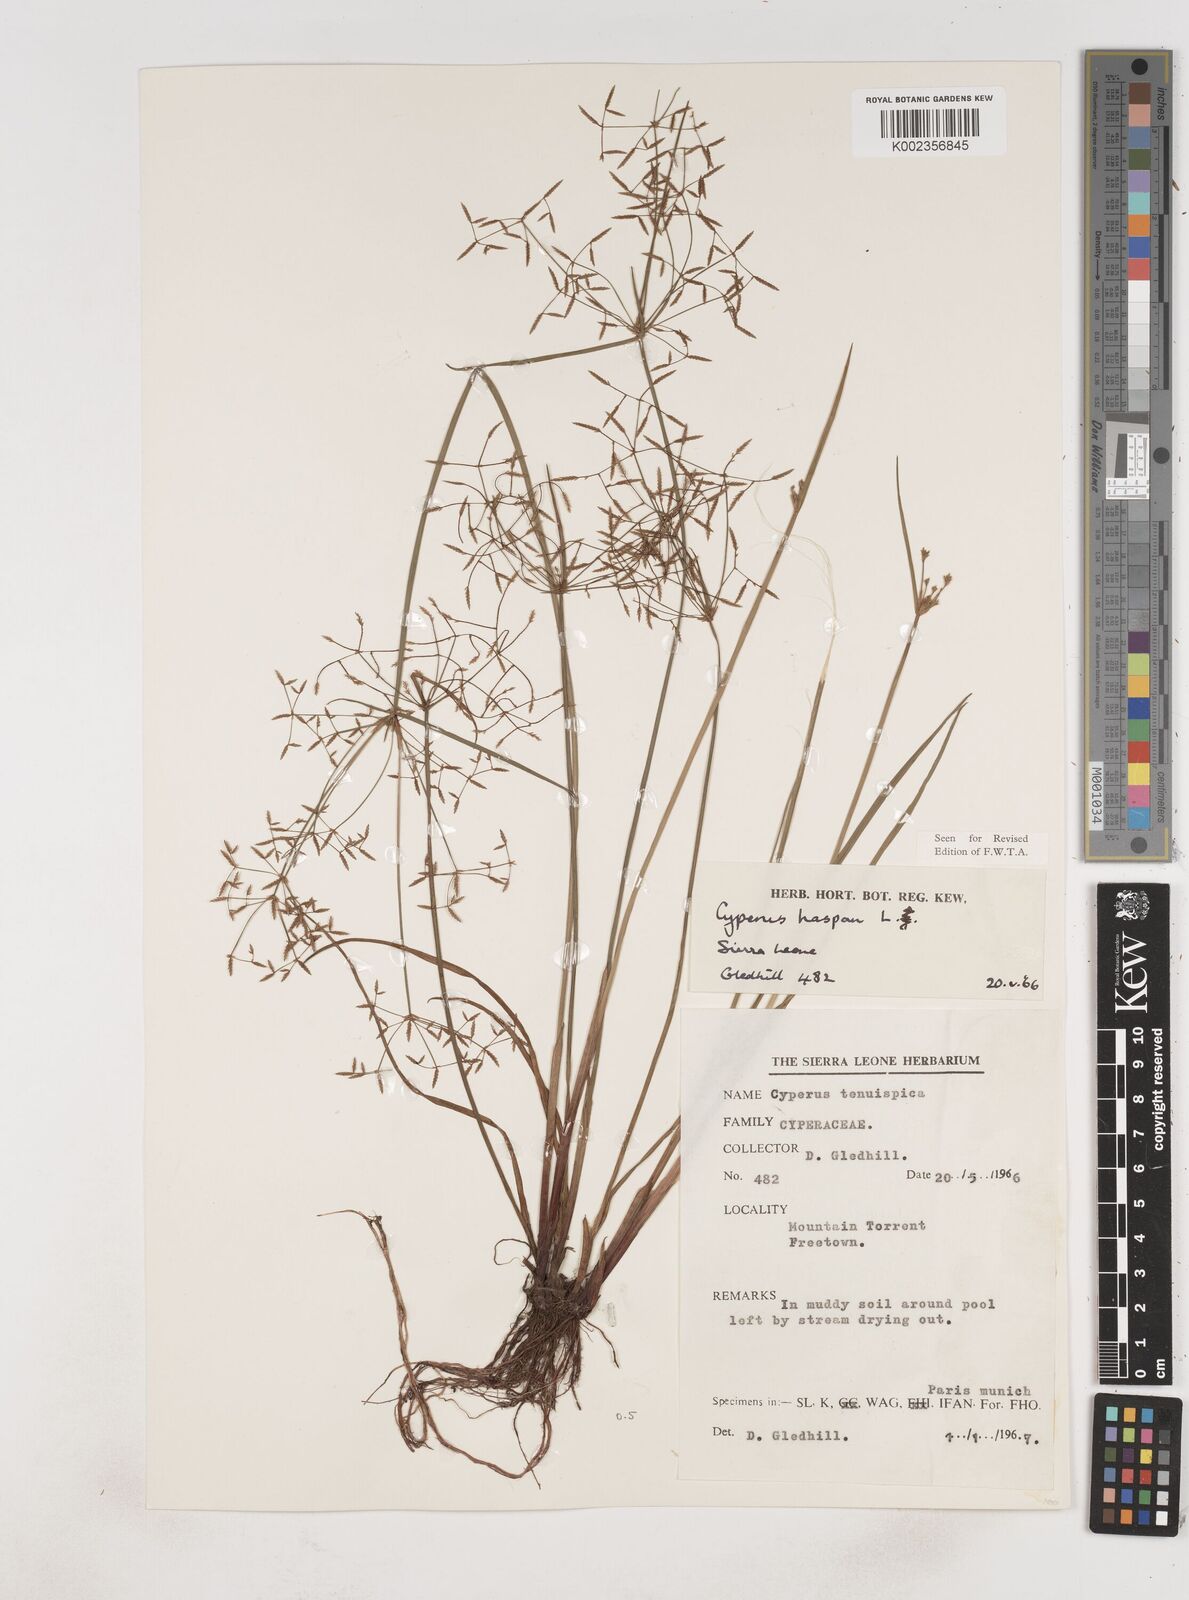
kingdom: Plantae
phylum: Tracheophyta
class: Liliopsida
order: Poales
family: Cyperaceae
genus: Cyperus
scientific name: Cyperus haspan
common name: Haspan flatsedge
